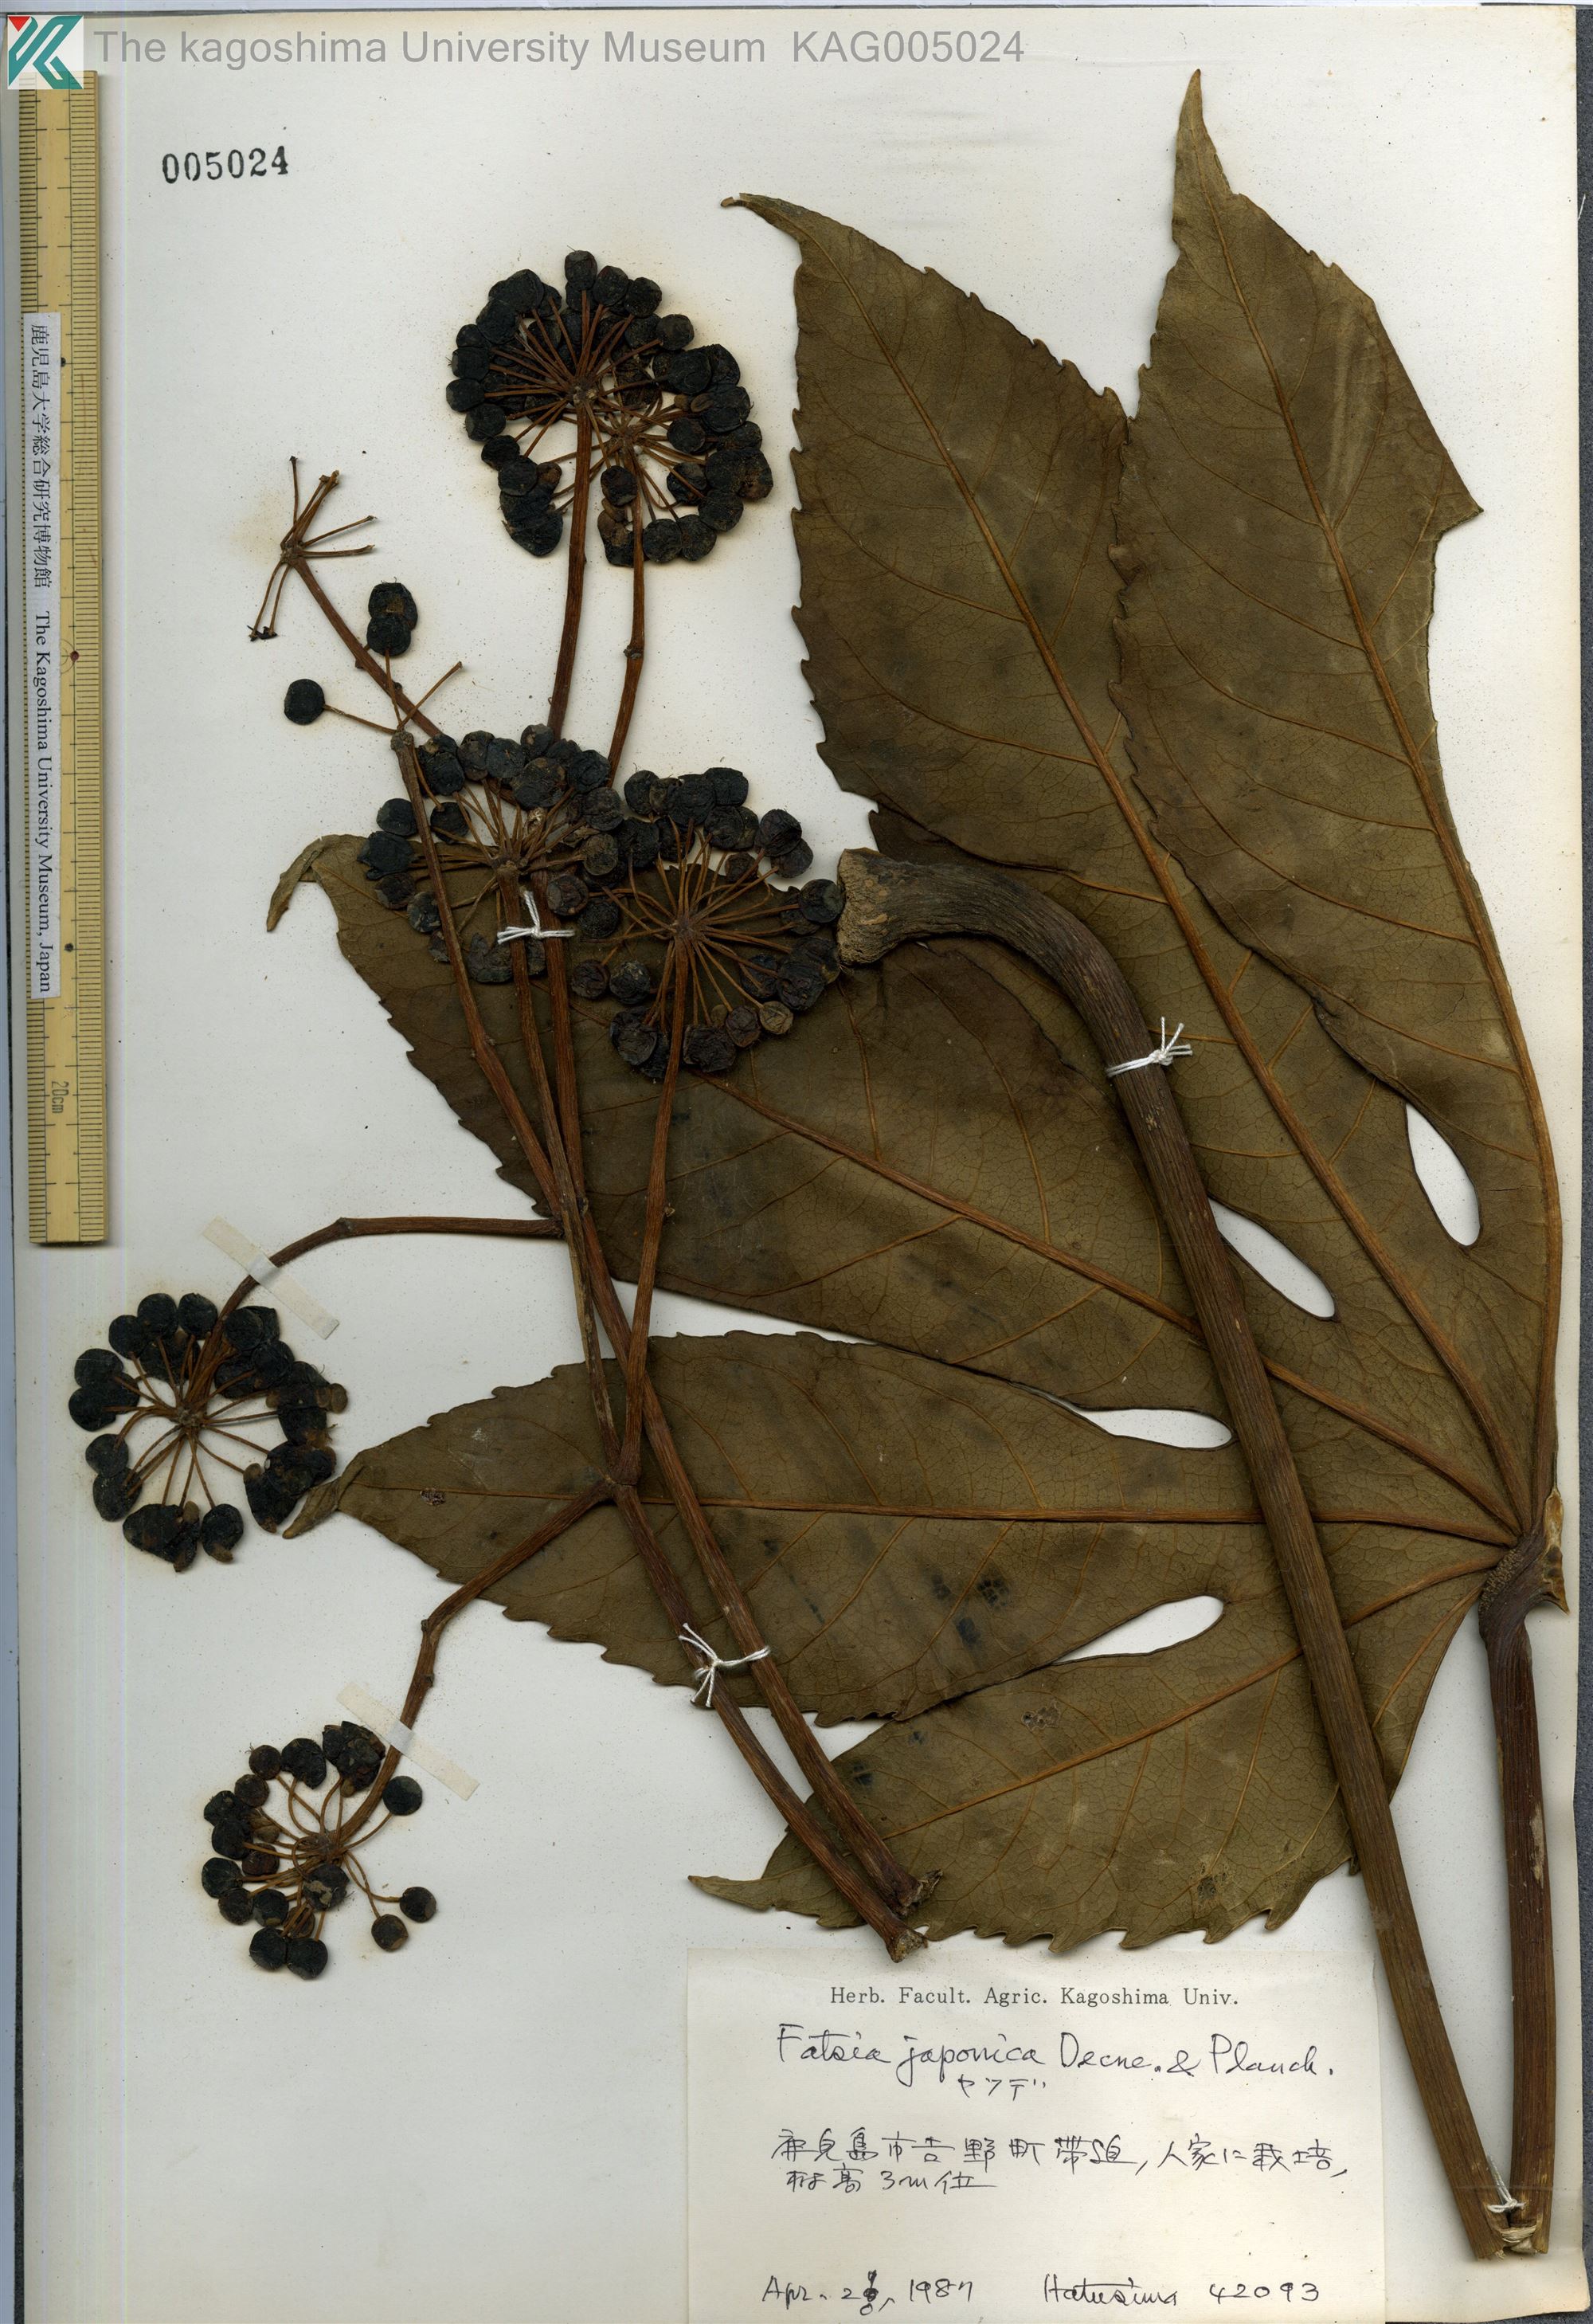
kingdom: Plantae
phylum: Tracheophyta
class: Magnoliopsida
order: Apiales
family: Araliaceae
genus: Fatsia
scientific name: Fatsia japonica
